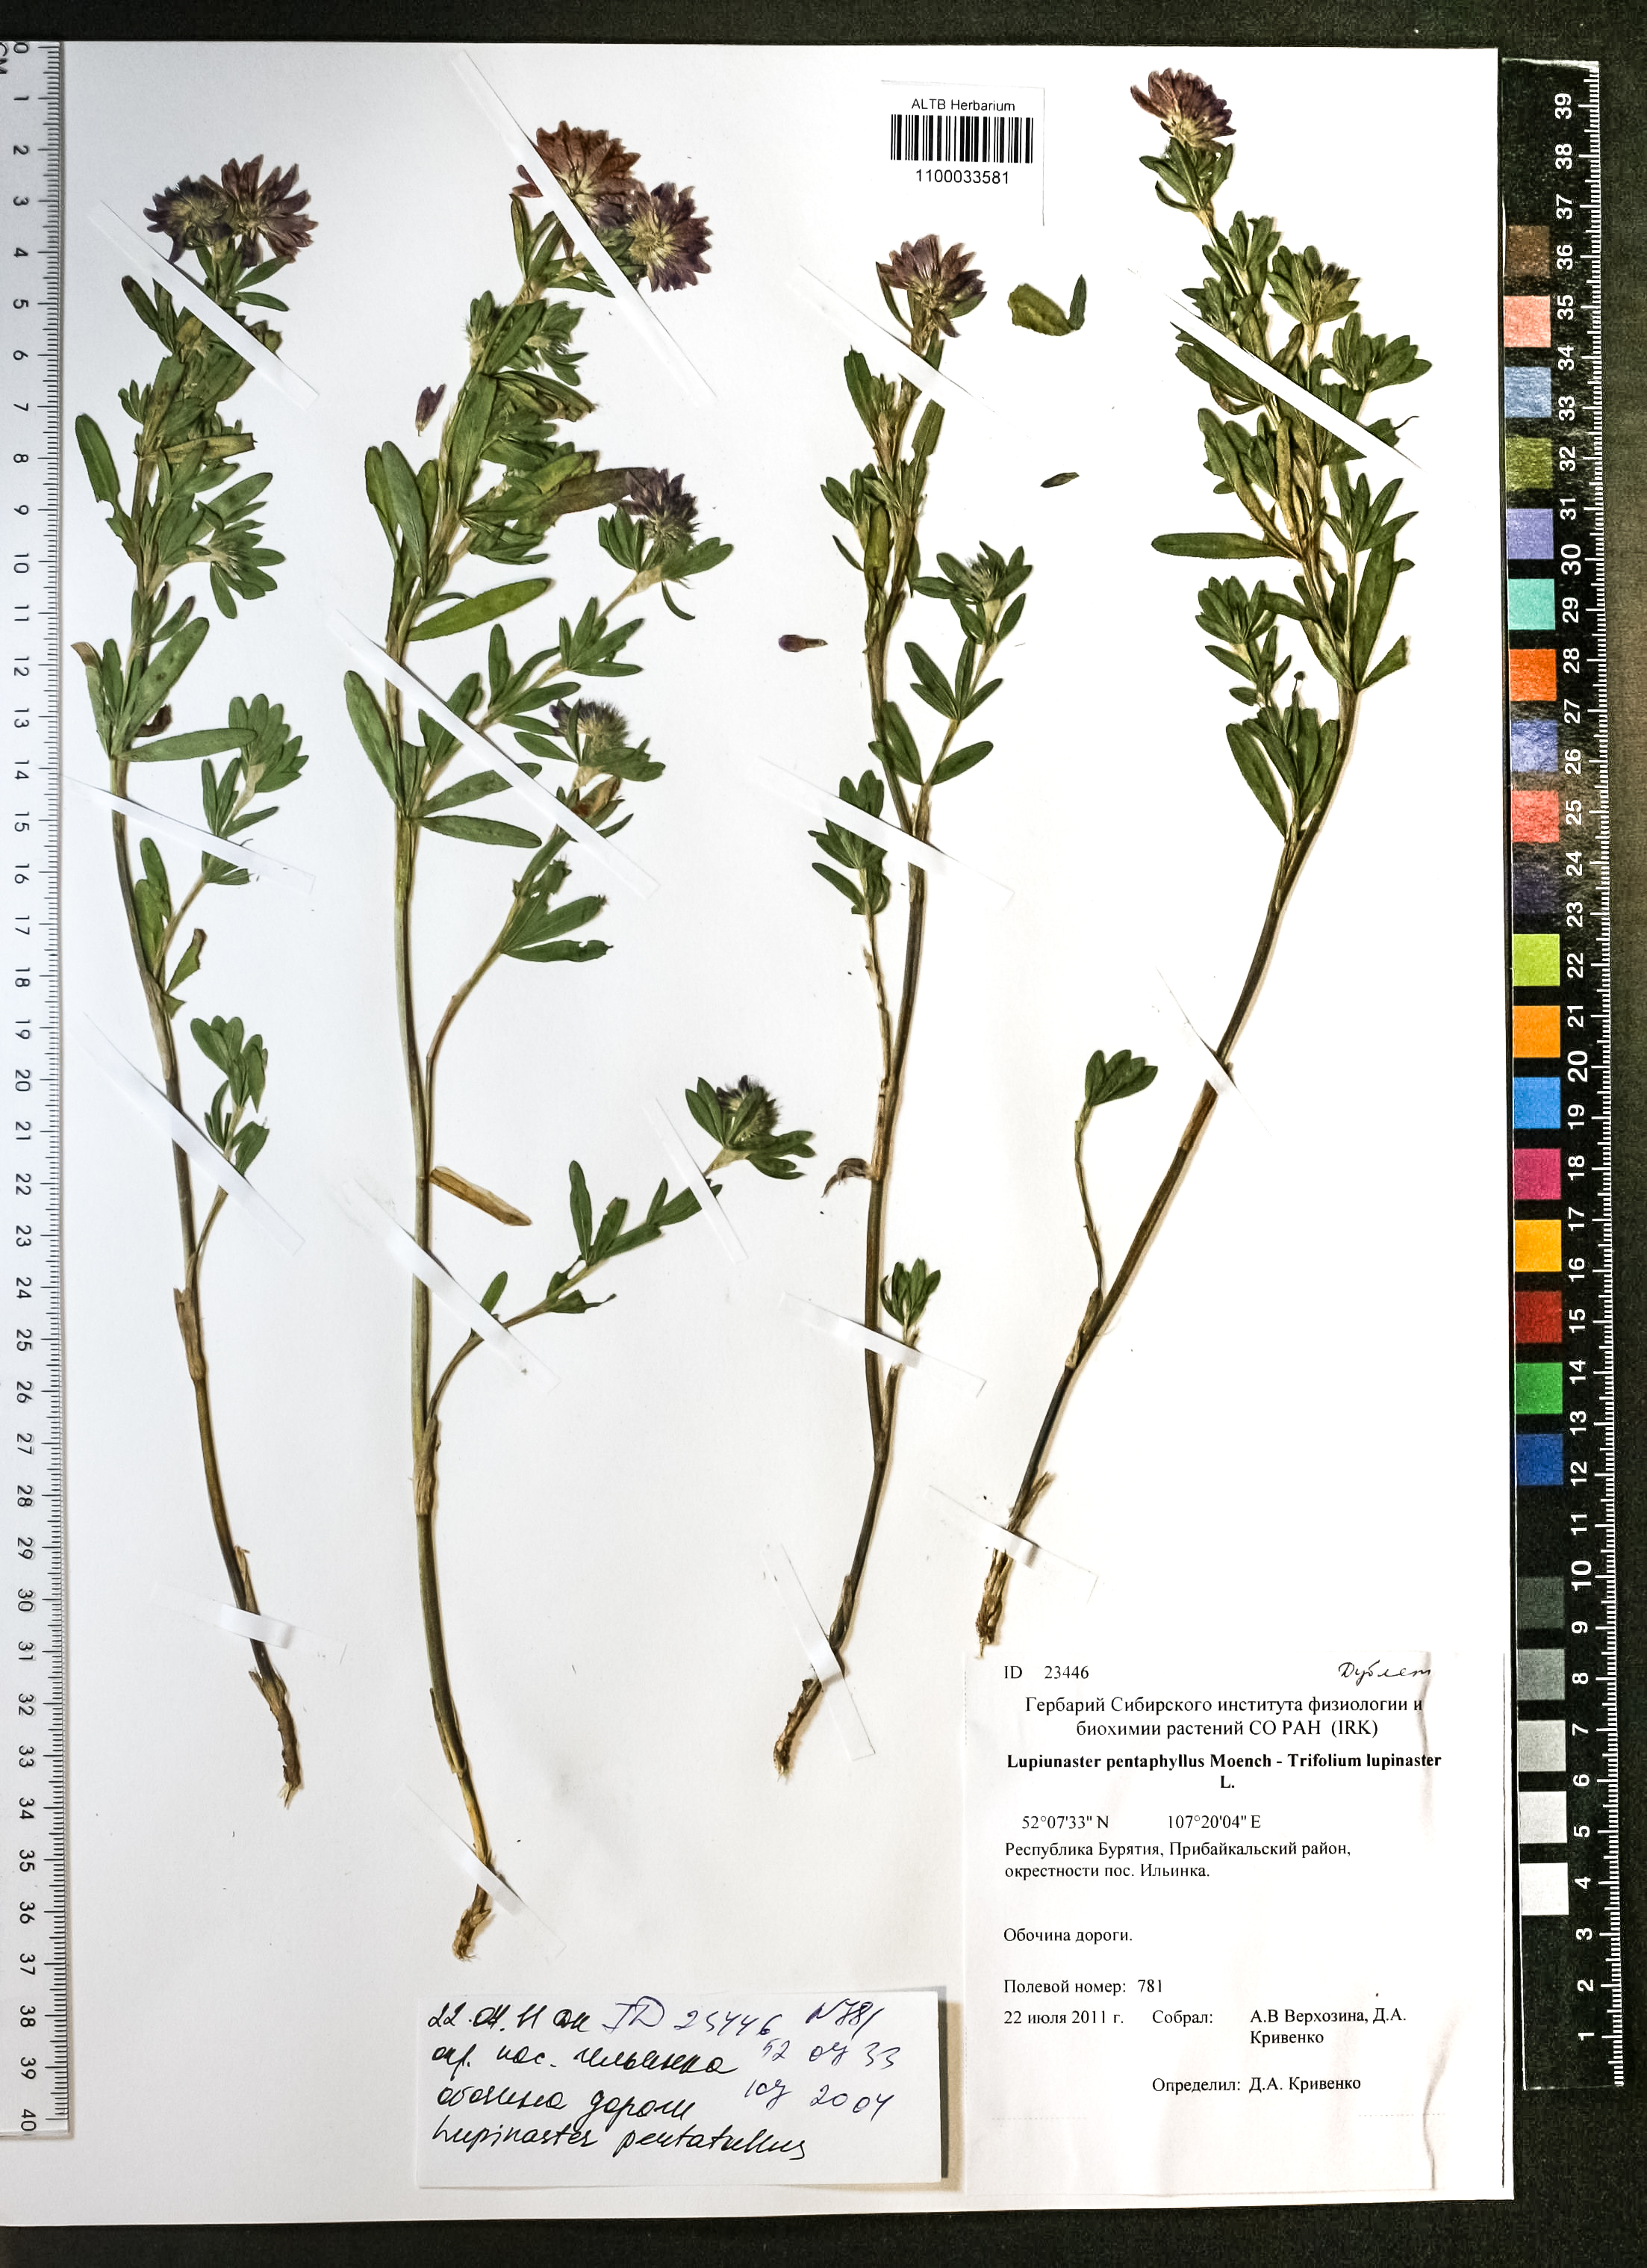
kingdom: Plantae
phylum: Tracheophyta
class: Magnoliopsida
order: Fabales
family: Fabaceae
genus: Trifolium
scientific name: Trifolium lupinaster
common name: Lupine clover
